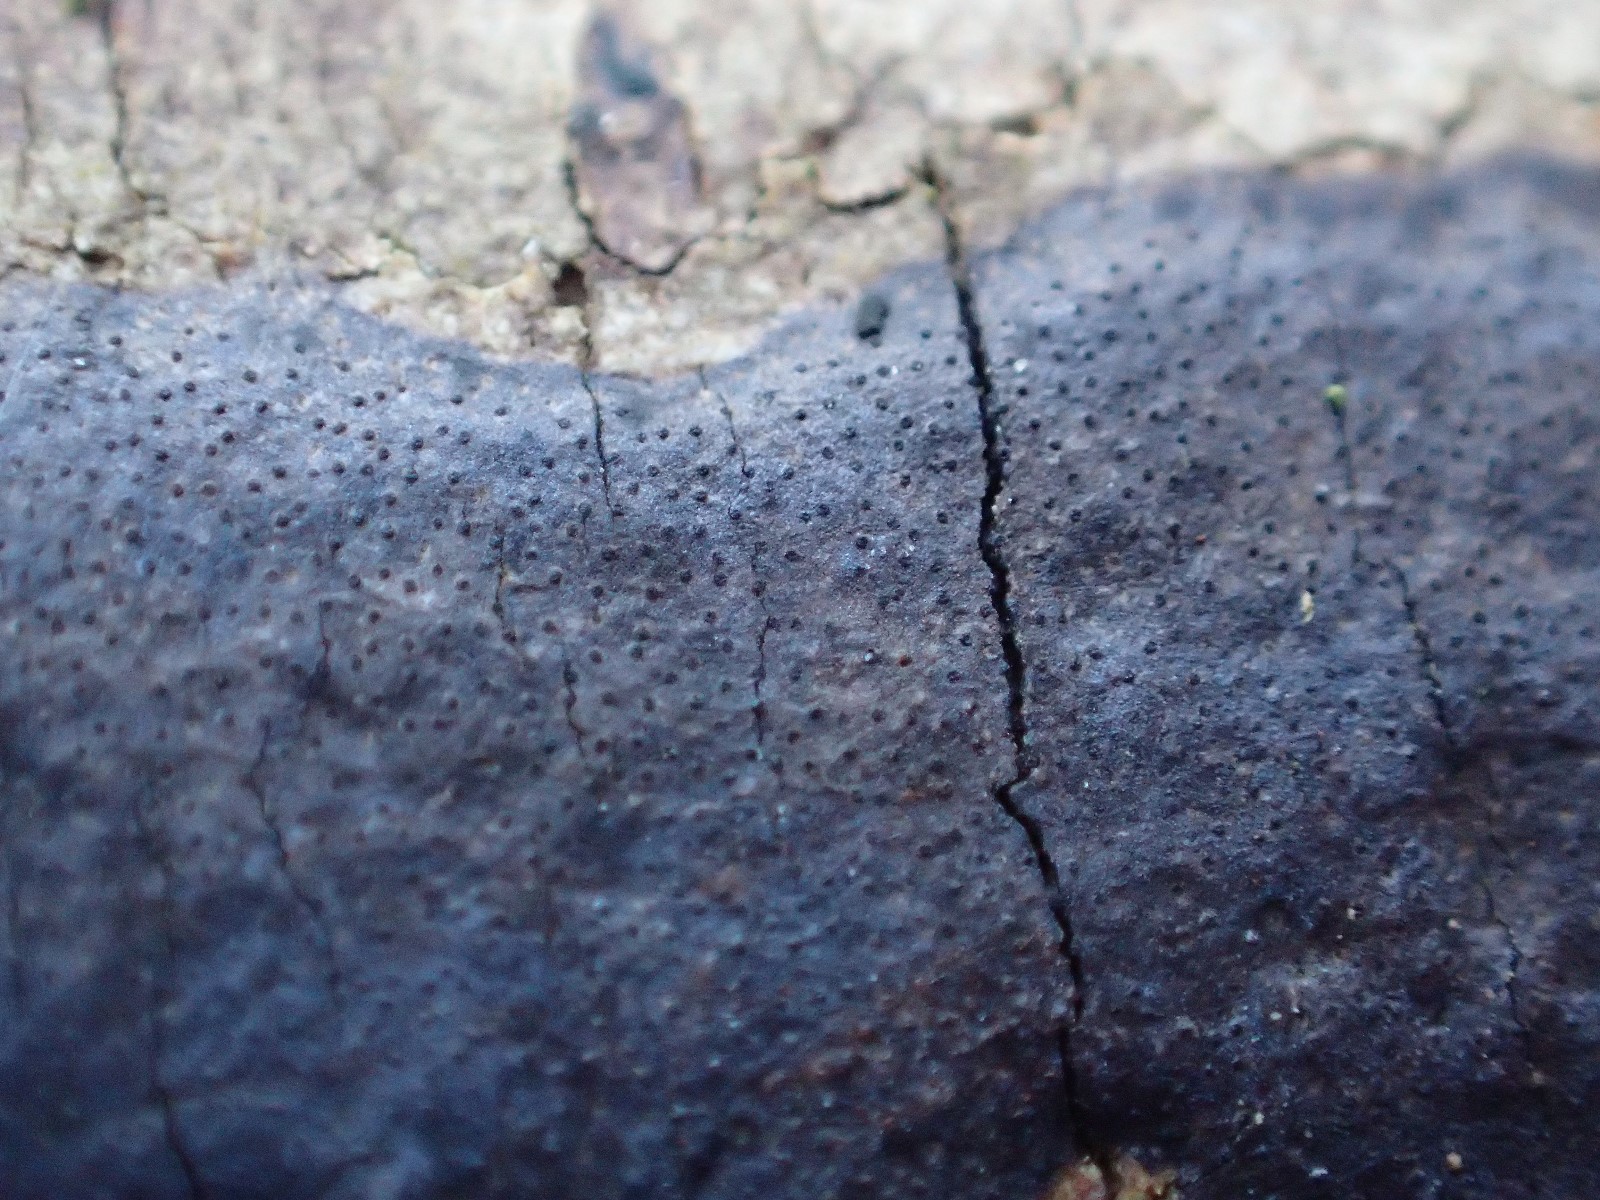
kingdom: Fungi
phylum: Ascomycota
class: Sordariomycetes
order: Xylariales
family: Diatrypaceae
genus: Diatrype
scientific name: Diatrype
